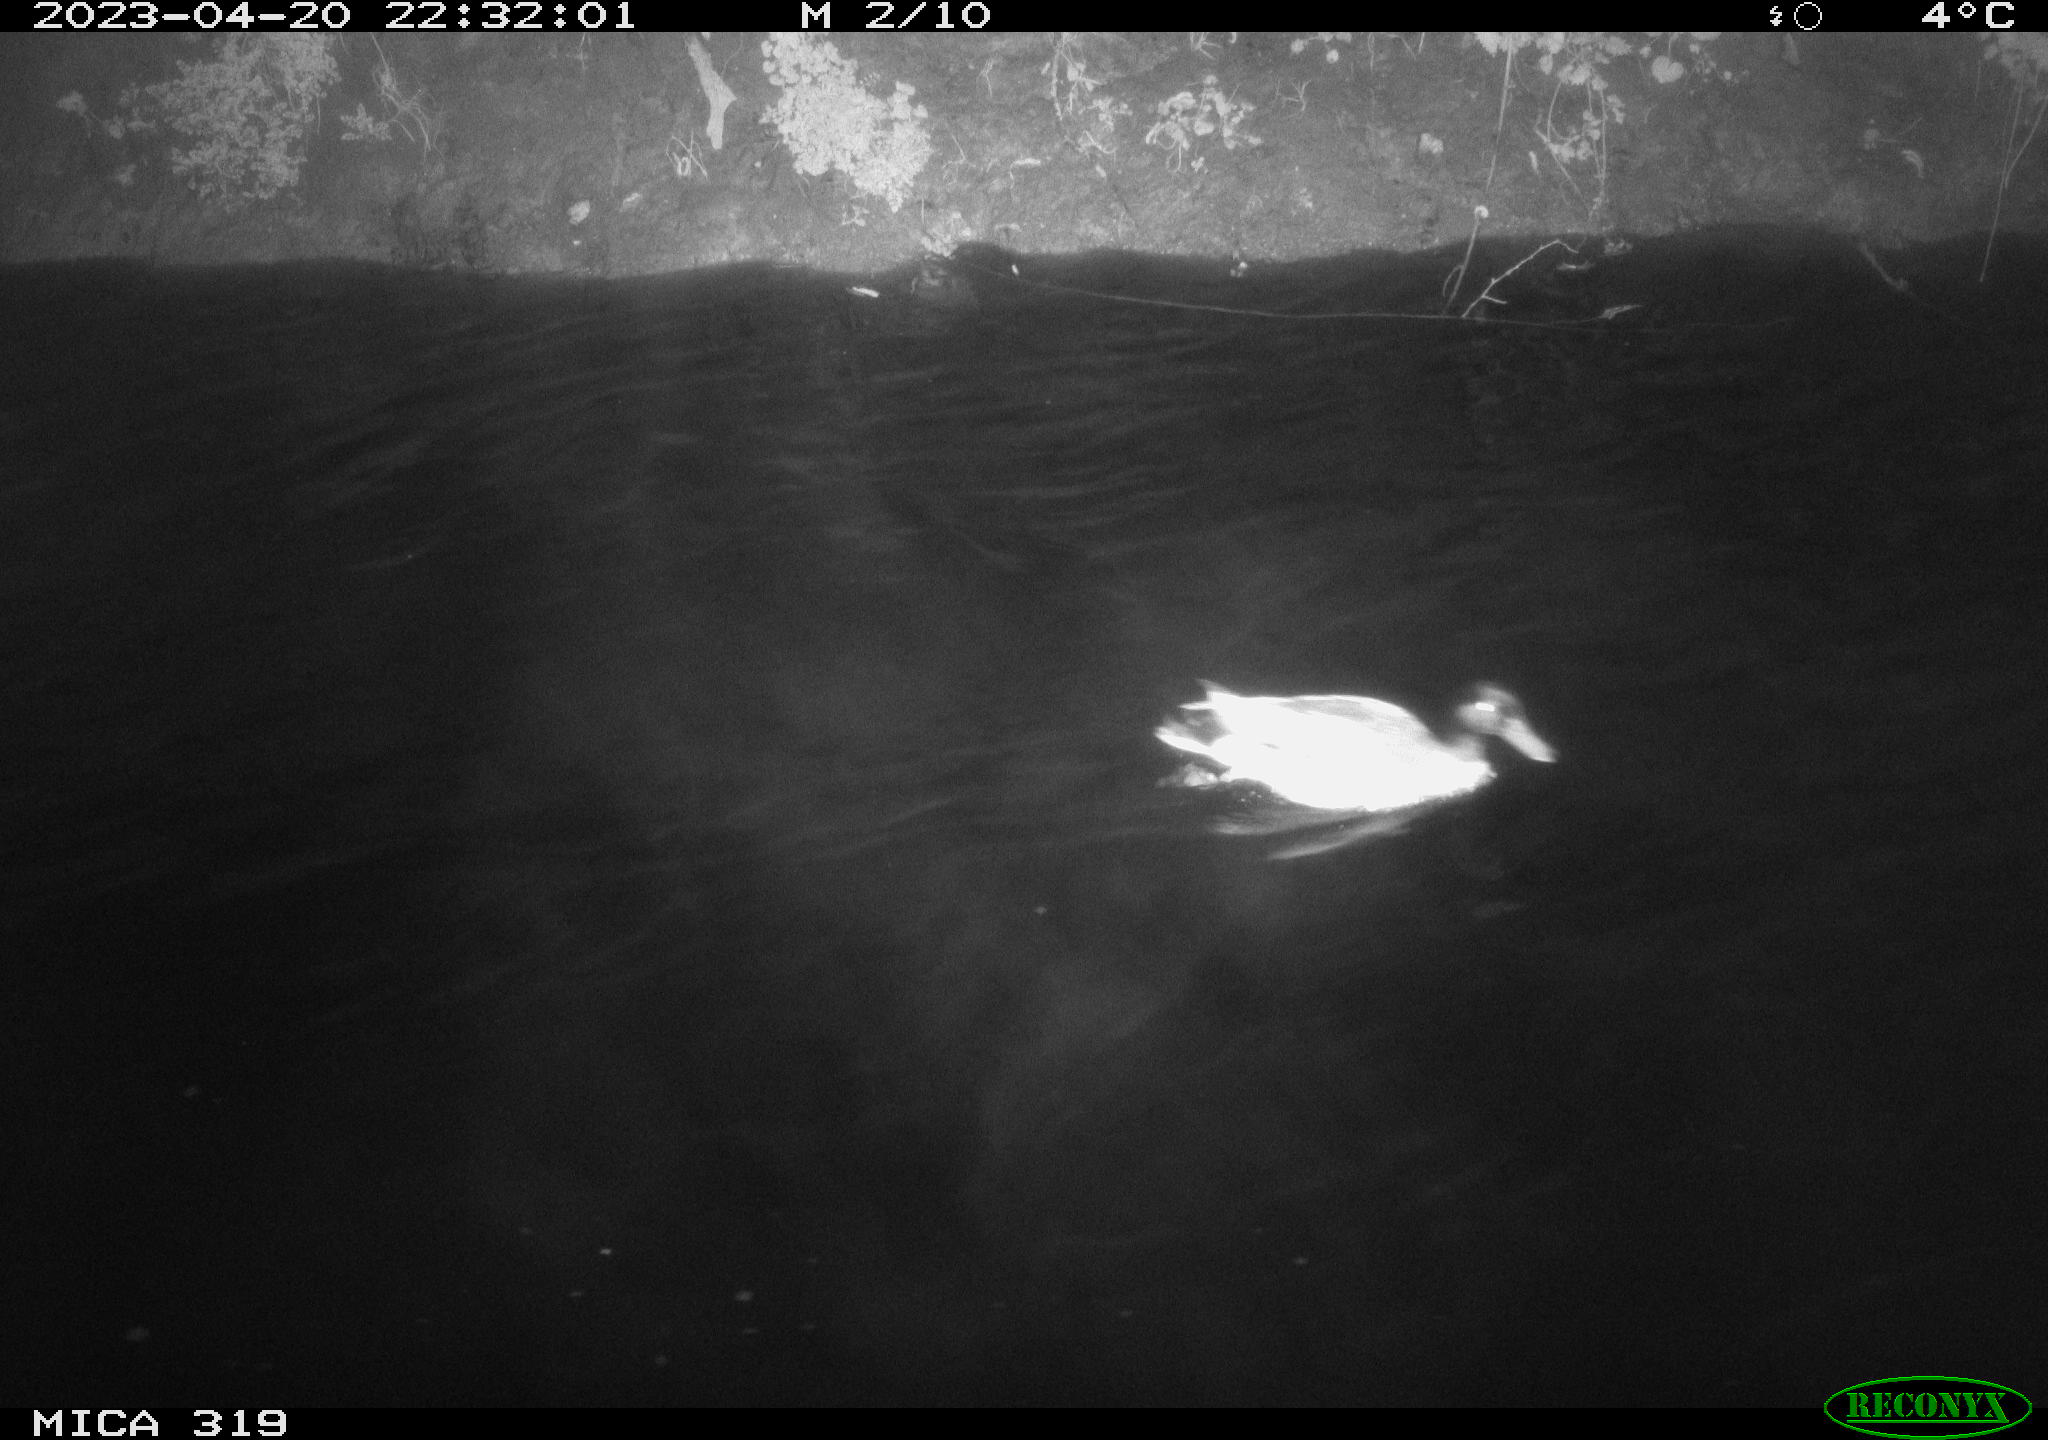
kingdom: Animalia
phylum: Chordata
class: Aves
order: Anseriformes
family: Anatidae
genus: Anas
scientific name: Anas
